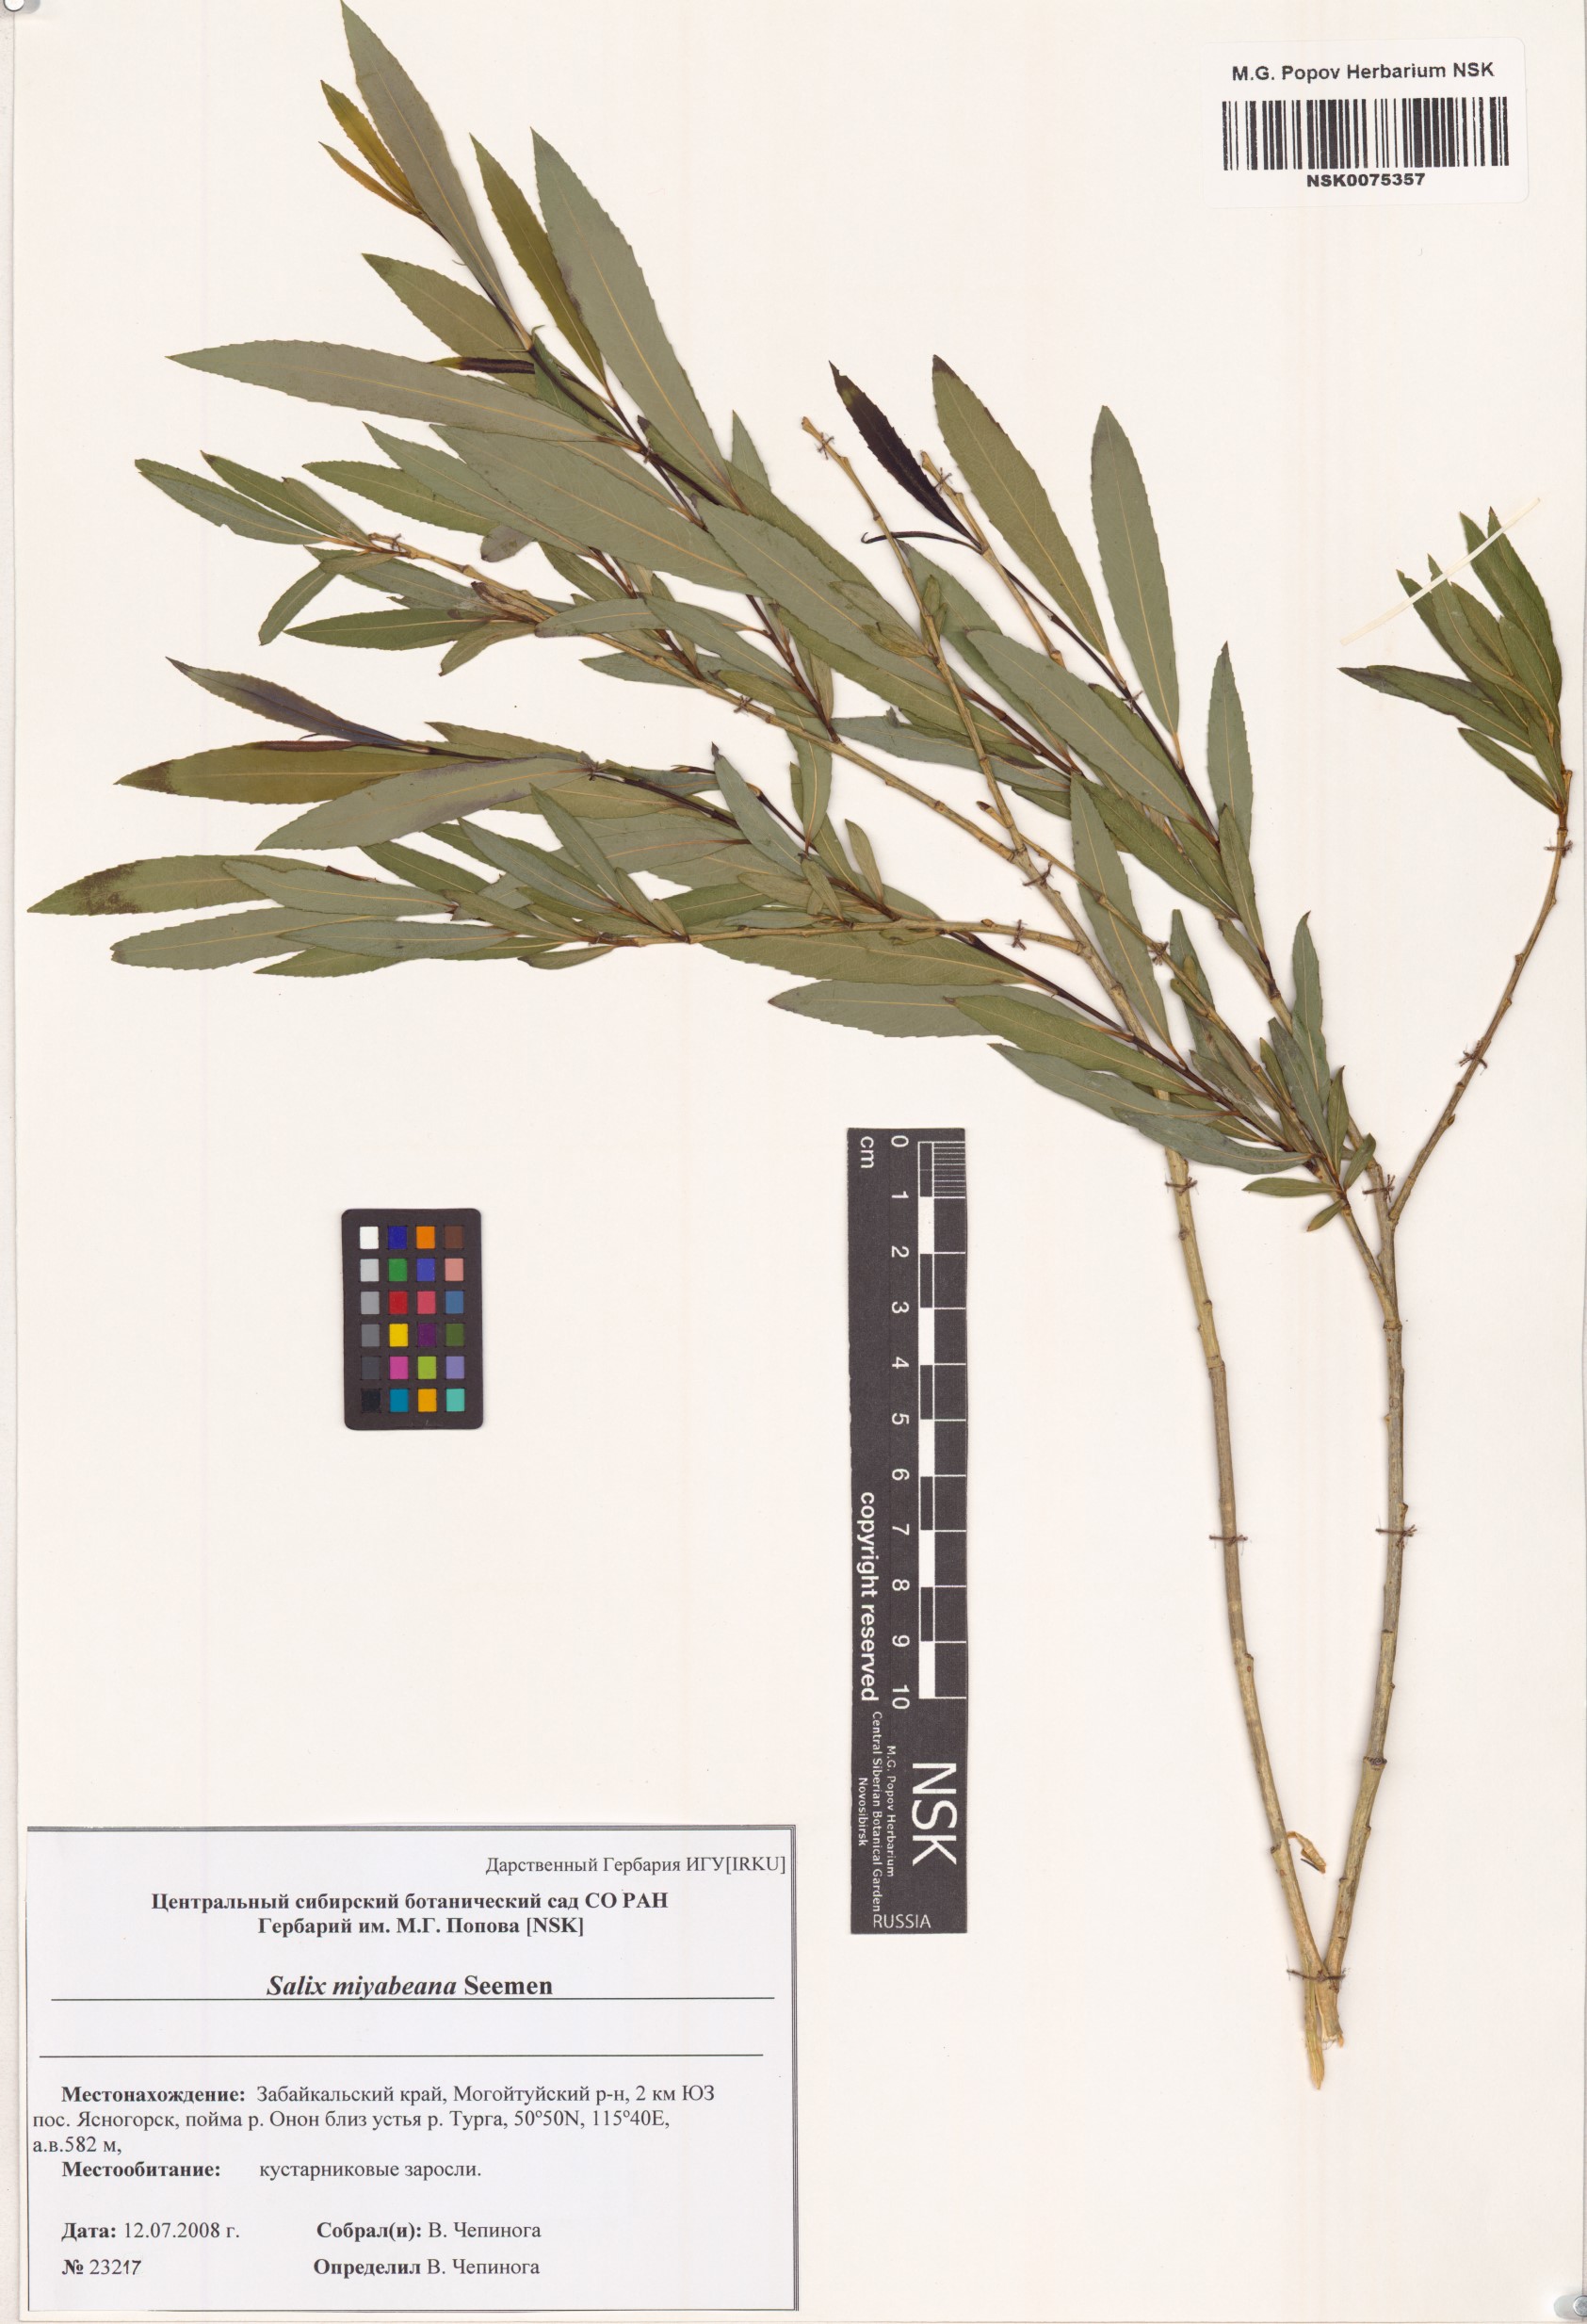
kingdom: Plantae
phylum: Tracheophyta
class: Magnoliopsida
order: Malpighiales
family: Salicaceae
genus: Salix
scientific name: Salix miyabeana
